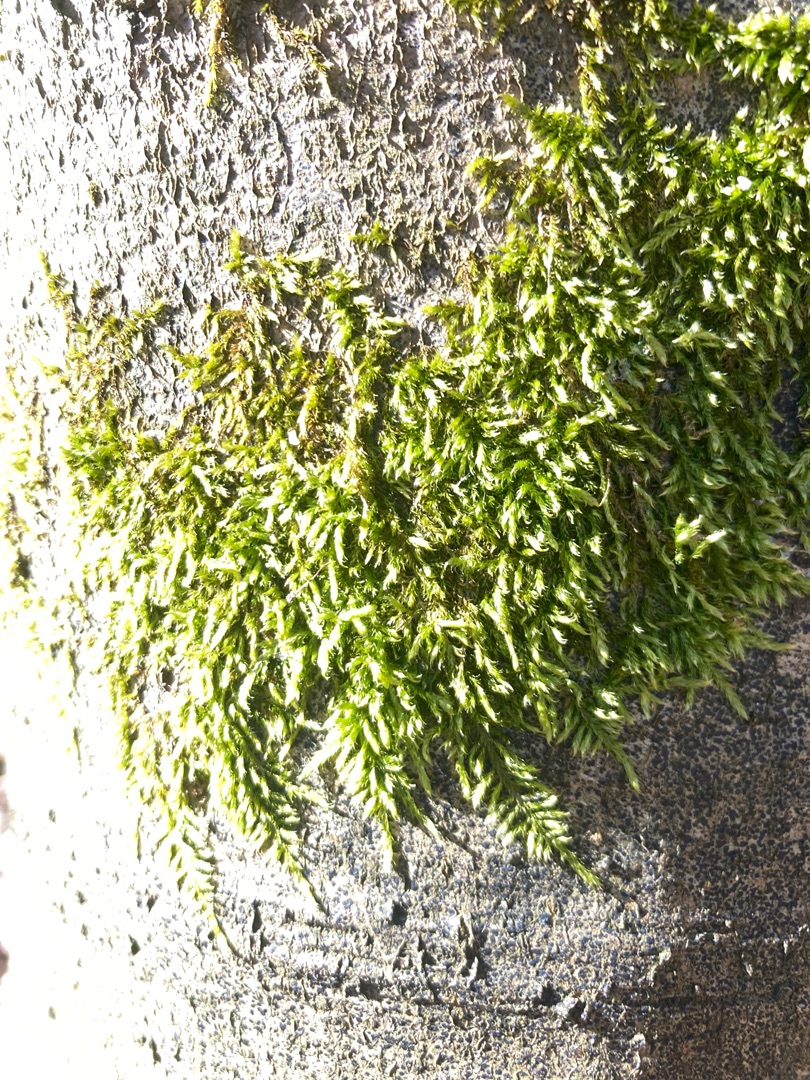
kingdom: Plantae
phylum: Bryophyta
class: Bryopsida
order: Hypnales
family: Hypnaceae
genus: Hypnum
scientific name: Hypnum cupressiforme
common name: Almindelig cypresmos
